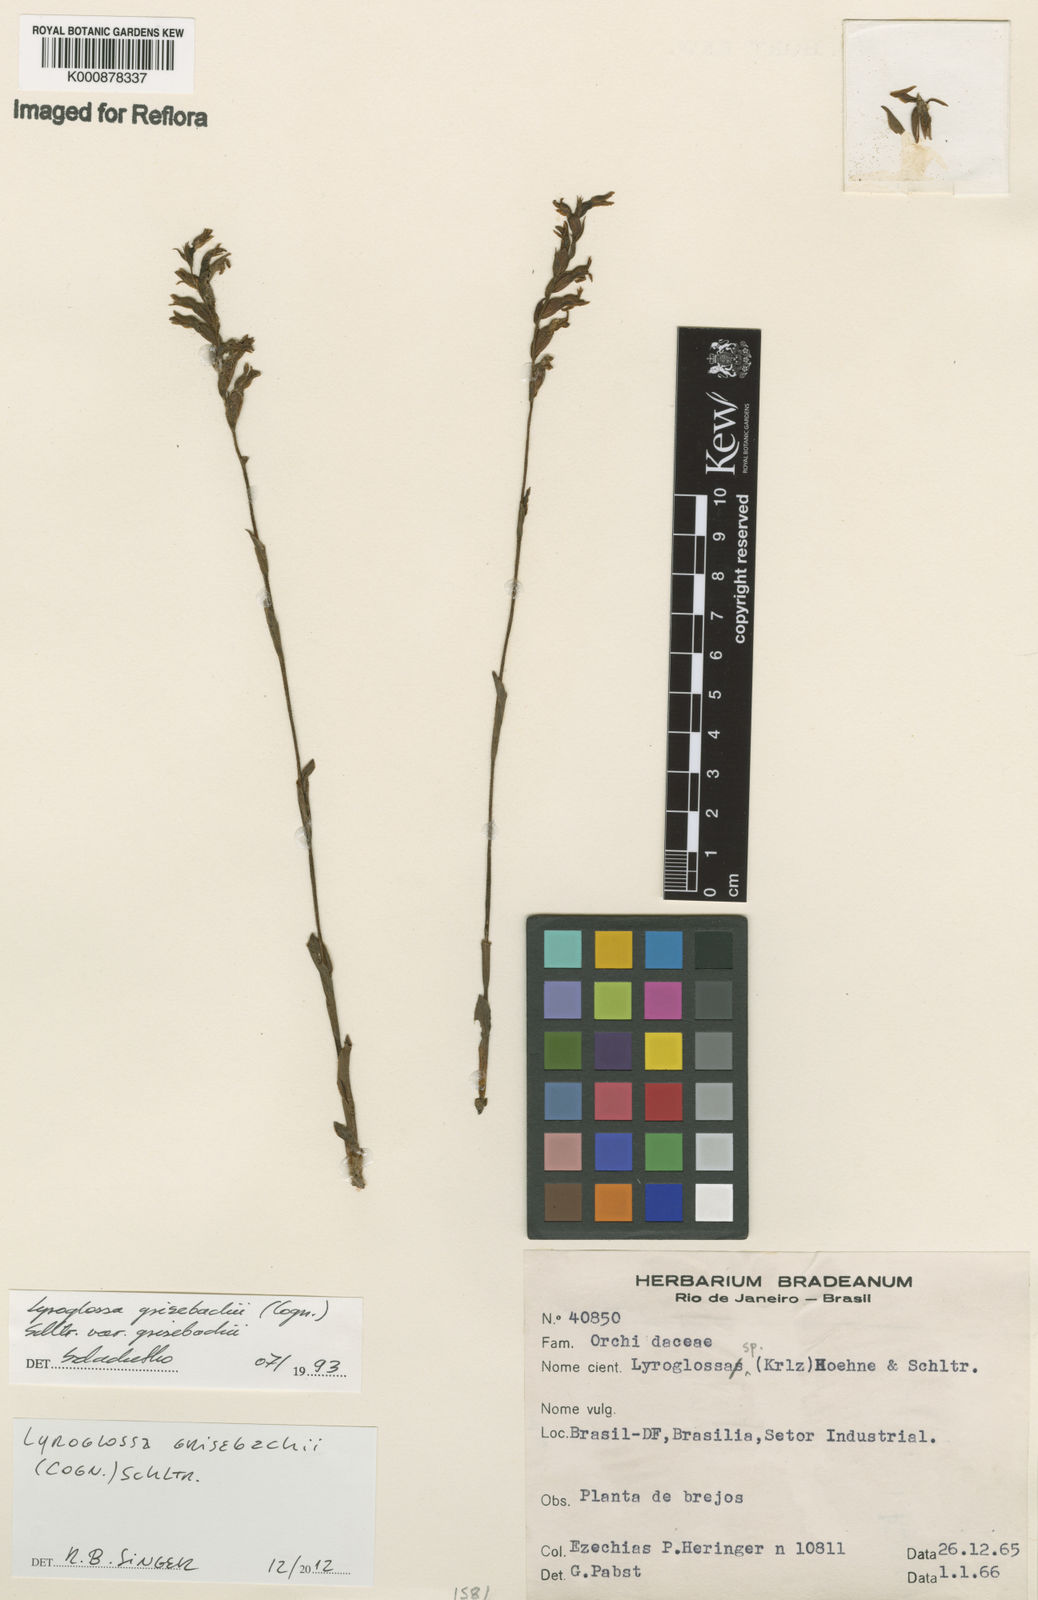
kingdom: Plantae
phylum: Tracheophyta
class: Liliopsida
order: Asparagales
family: Orchidaceae
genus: Lyroglossa
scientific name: Lyroglossa grisebachii
